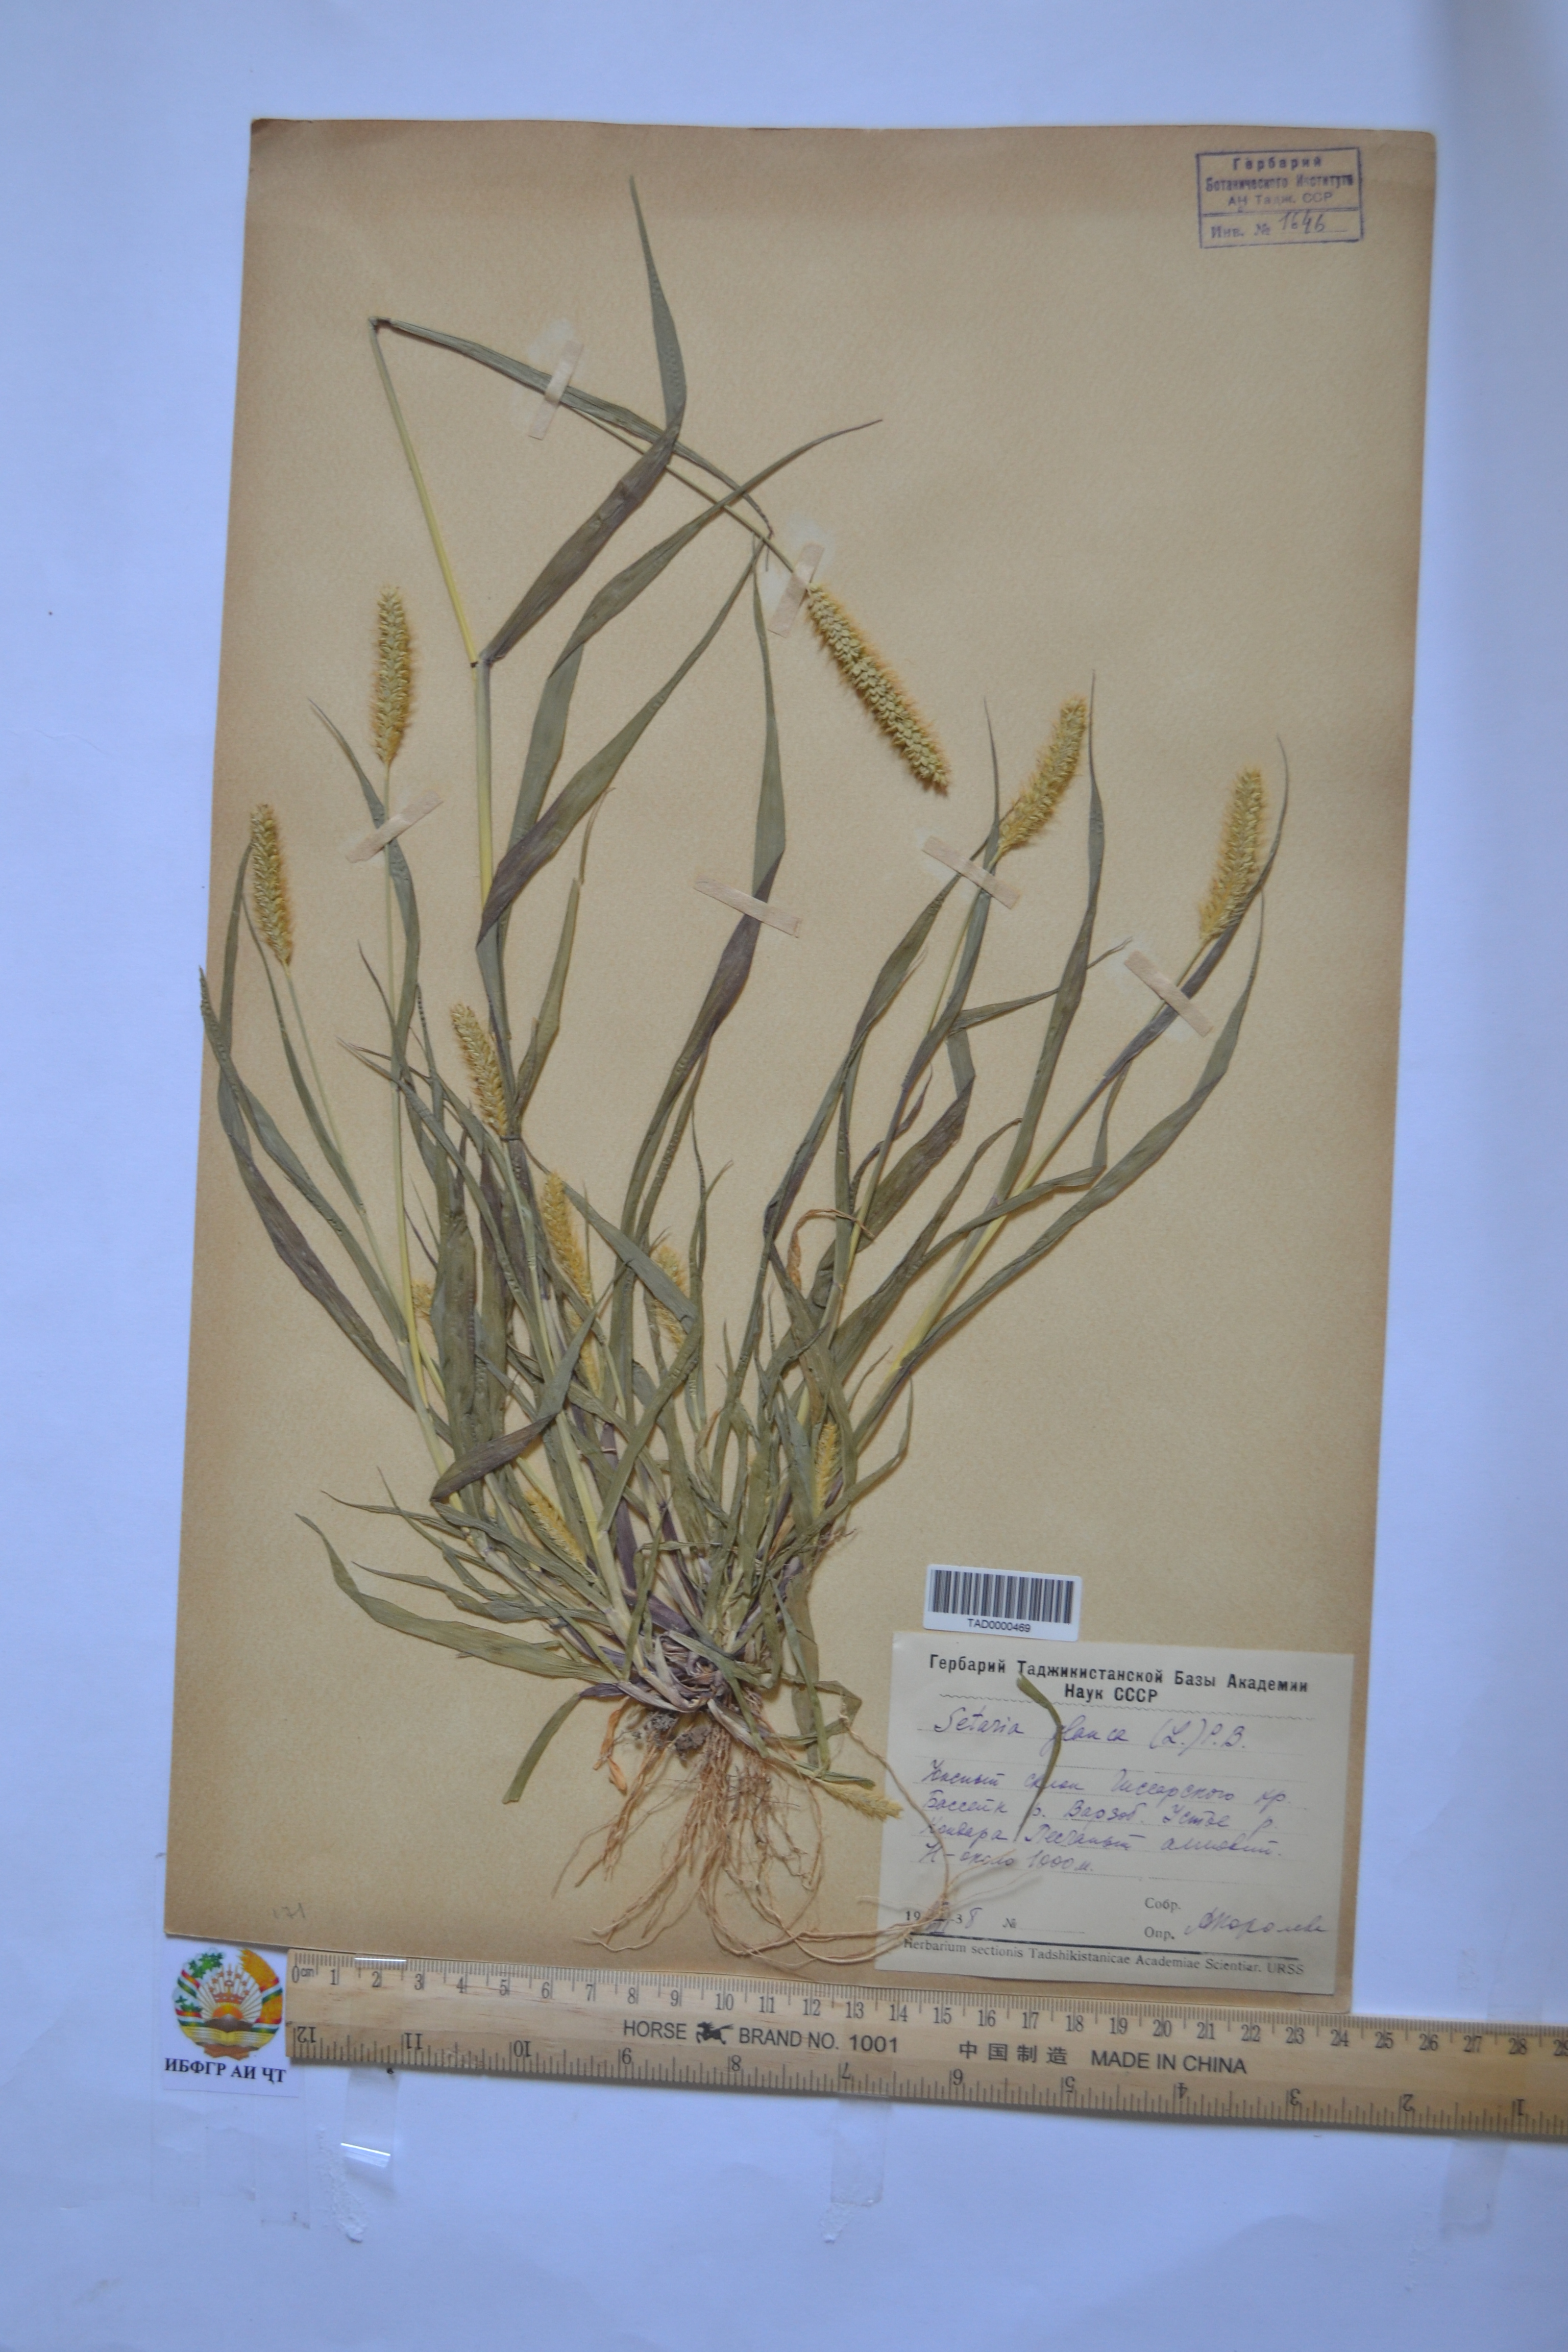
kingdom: Plantae
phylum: Tracheophyta
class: Liliopsida
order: Poales
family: Poaceae
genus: Cenchrus
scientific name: Cenchrus americanus
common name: Pearl millet
